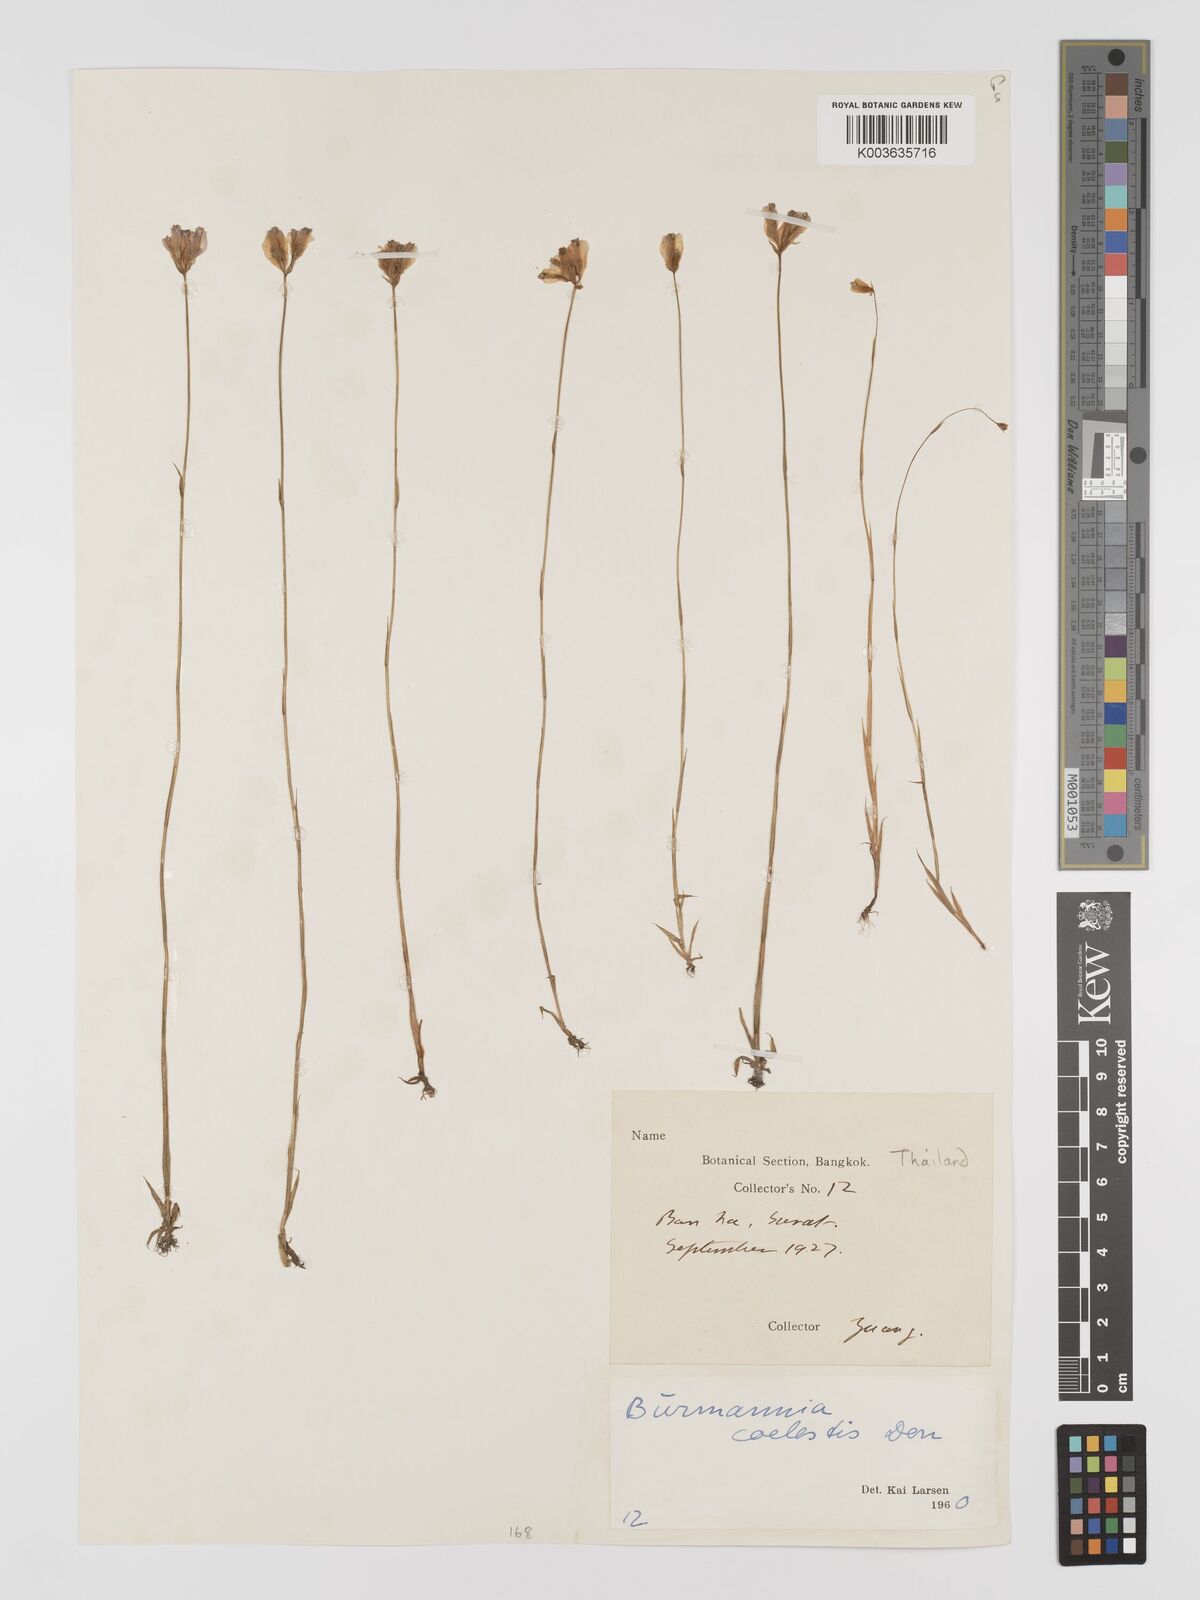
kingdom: Plantae
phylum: Tracheophyta
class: Liliopsida
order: Dioscoreales
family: Burmanniaceae
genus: Burmannia
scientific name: Burmannia coelestis
